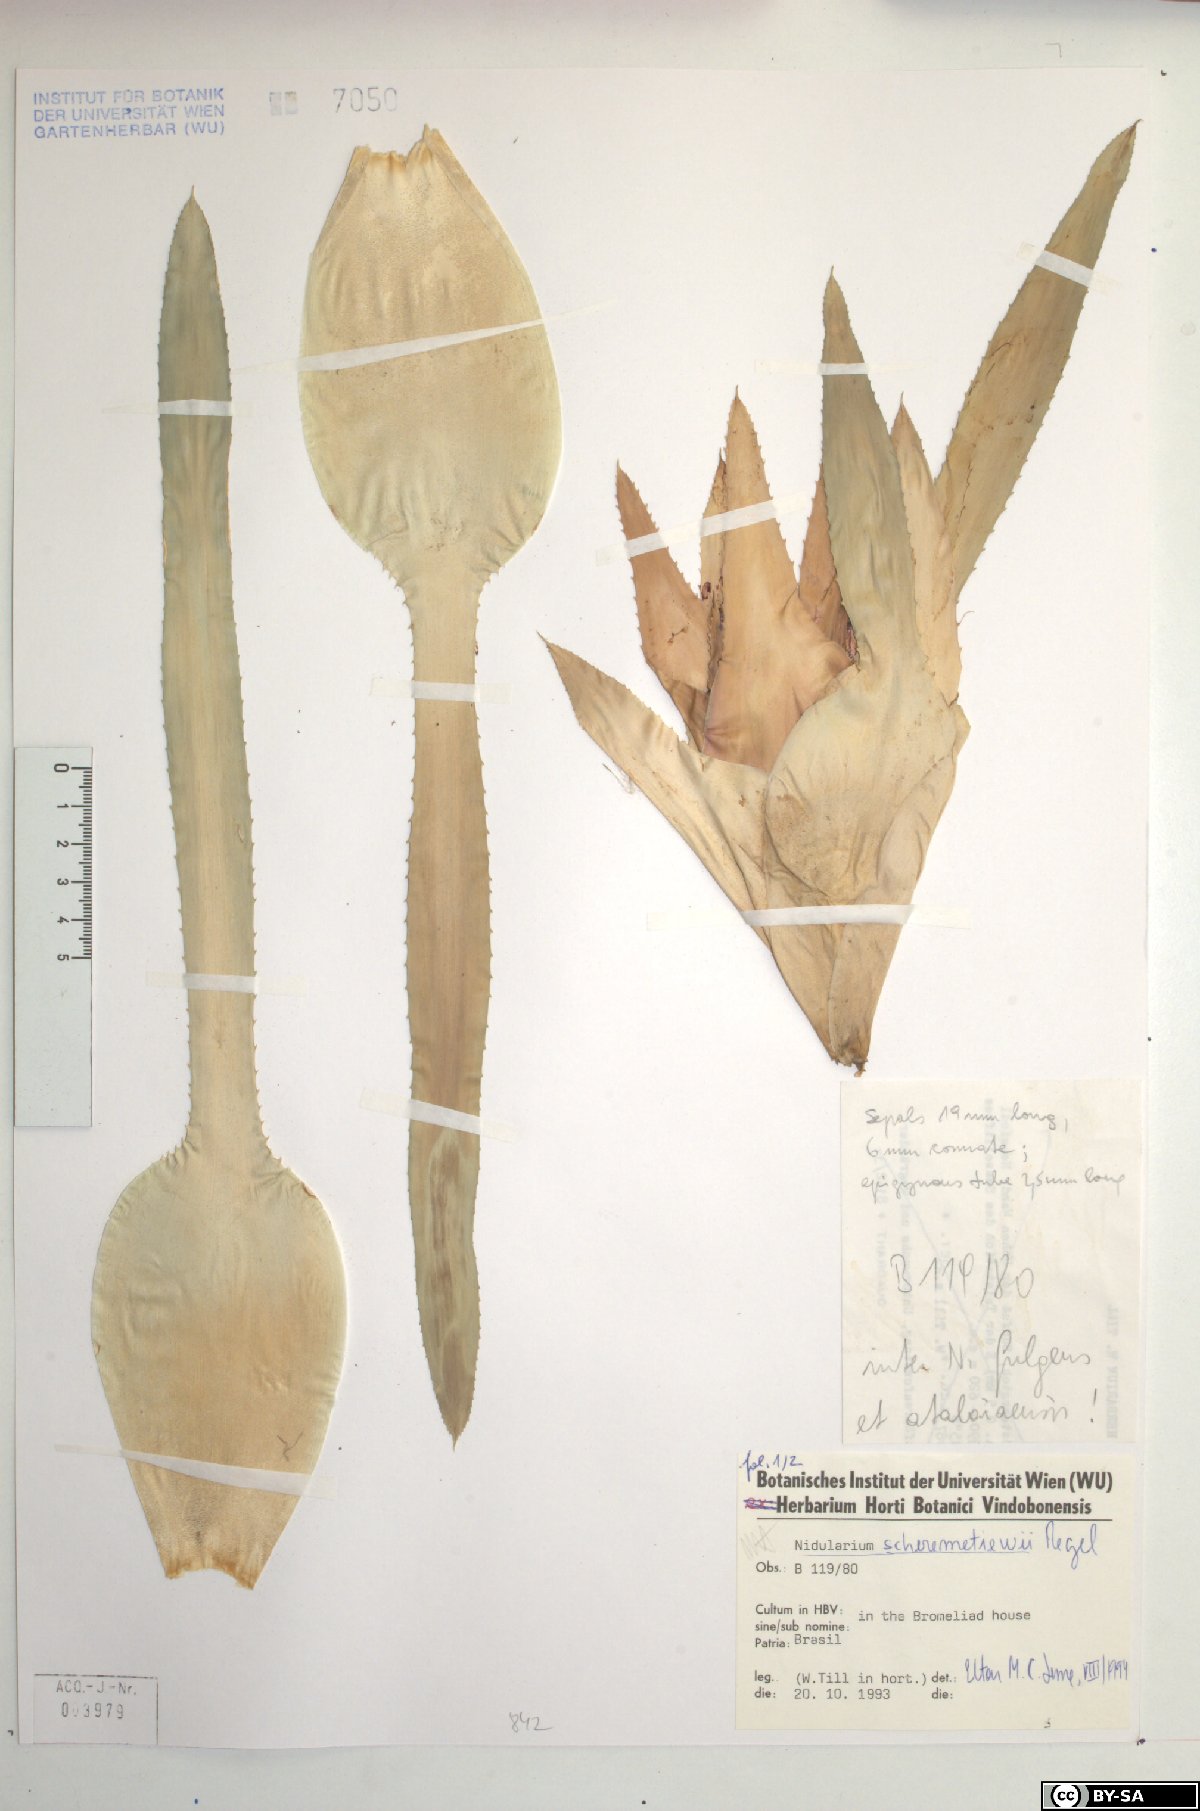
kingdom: Plantae
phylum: Tracheophyta
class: Liliopsida
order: Poales
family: Bromeliaceae
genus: Nidularium
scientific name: Nidularium scheremetiewii
